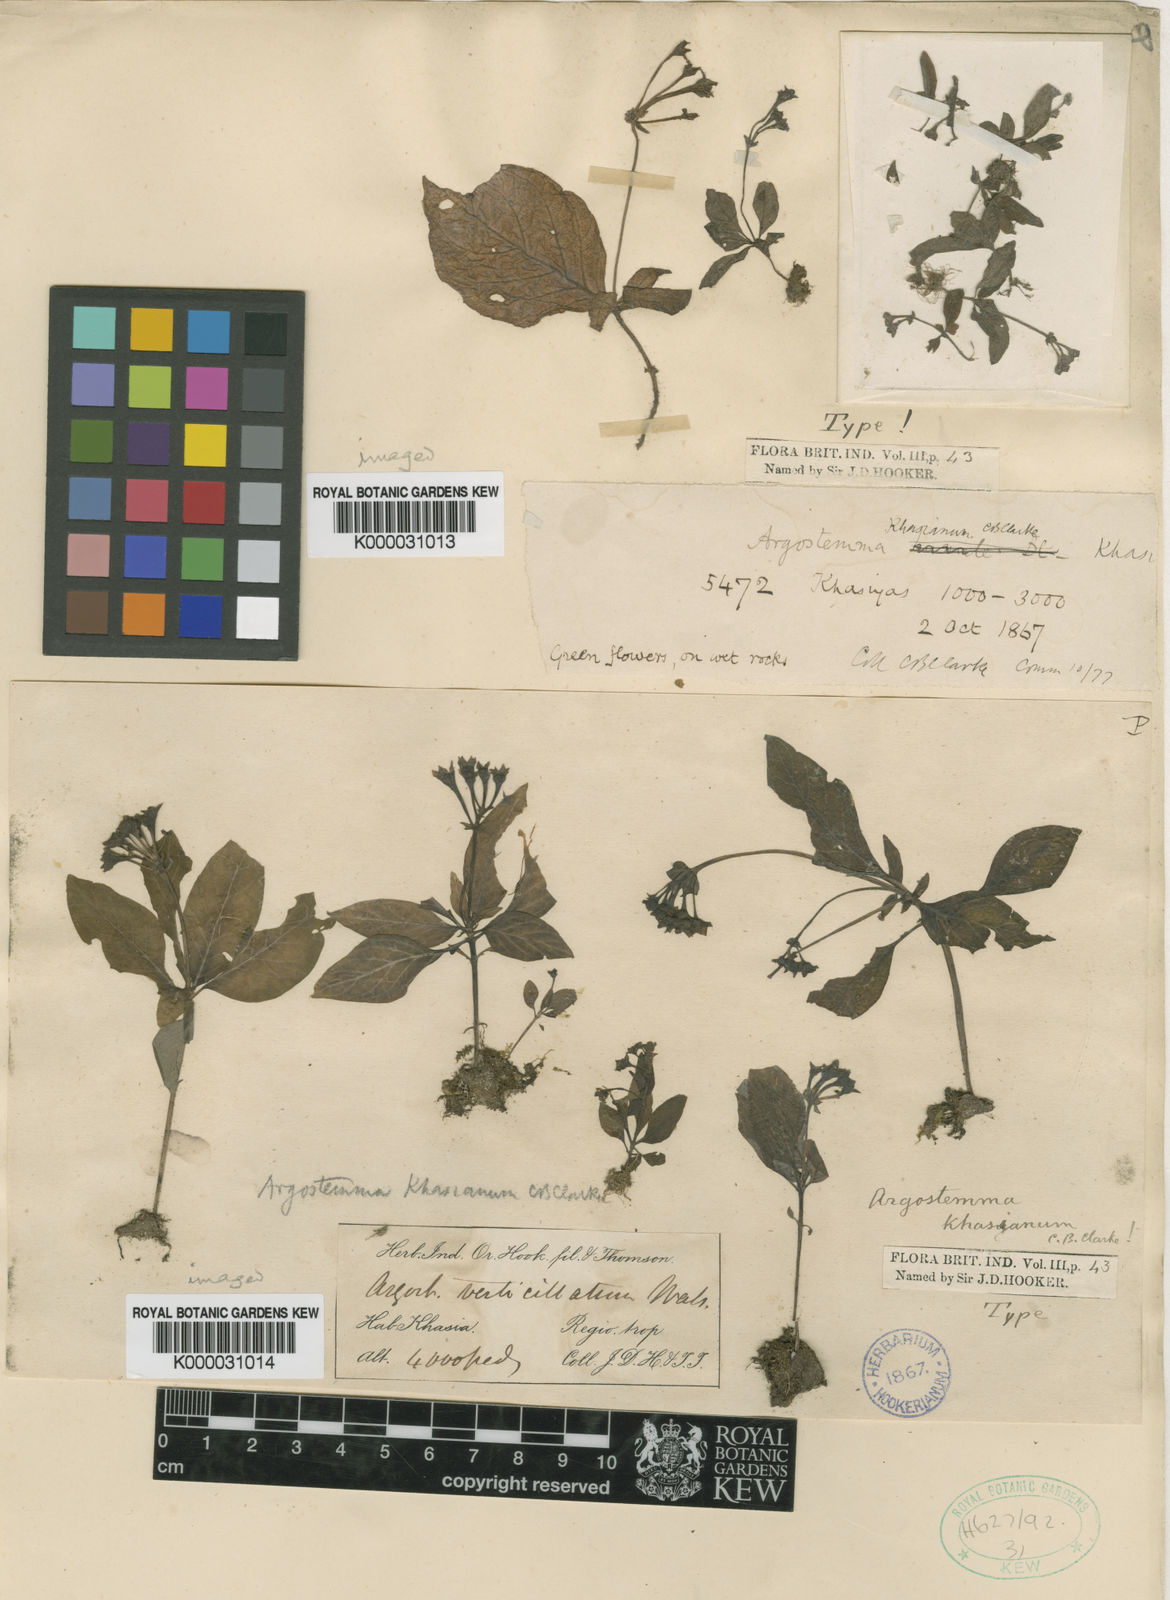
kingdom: Plantae
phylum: Tracheophyta
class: Magnoliopsida
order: Gentianales
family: Rubiaceae
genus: Argostemma
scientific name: Argostemma khasianum
